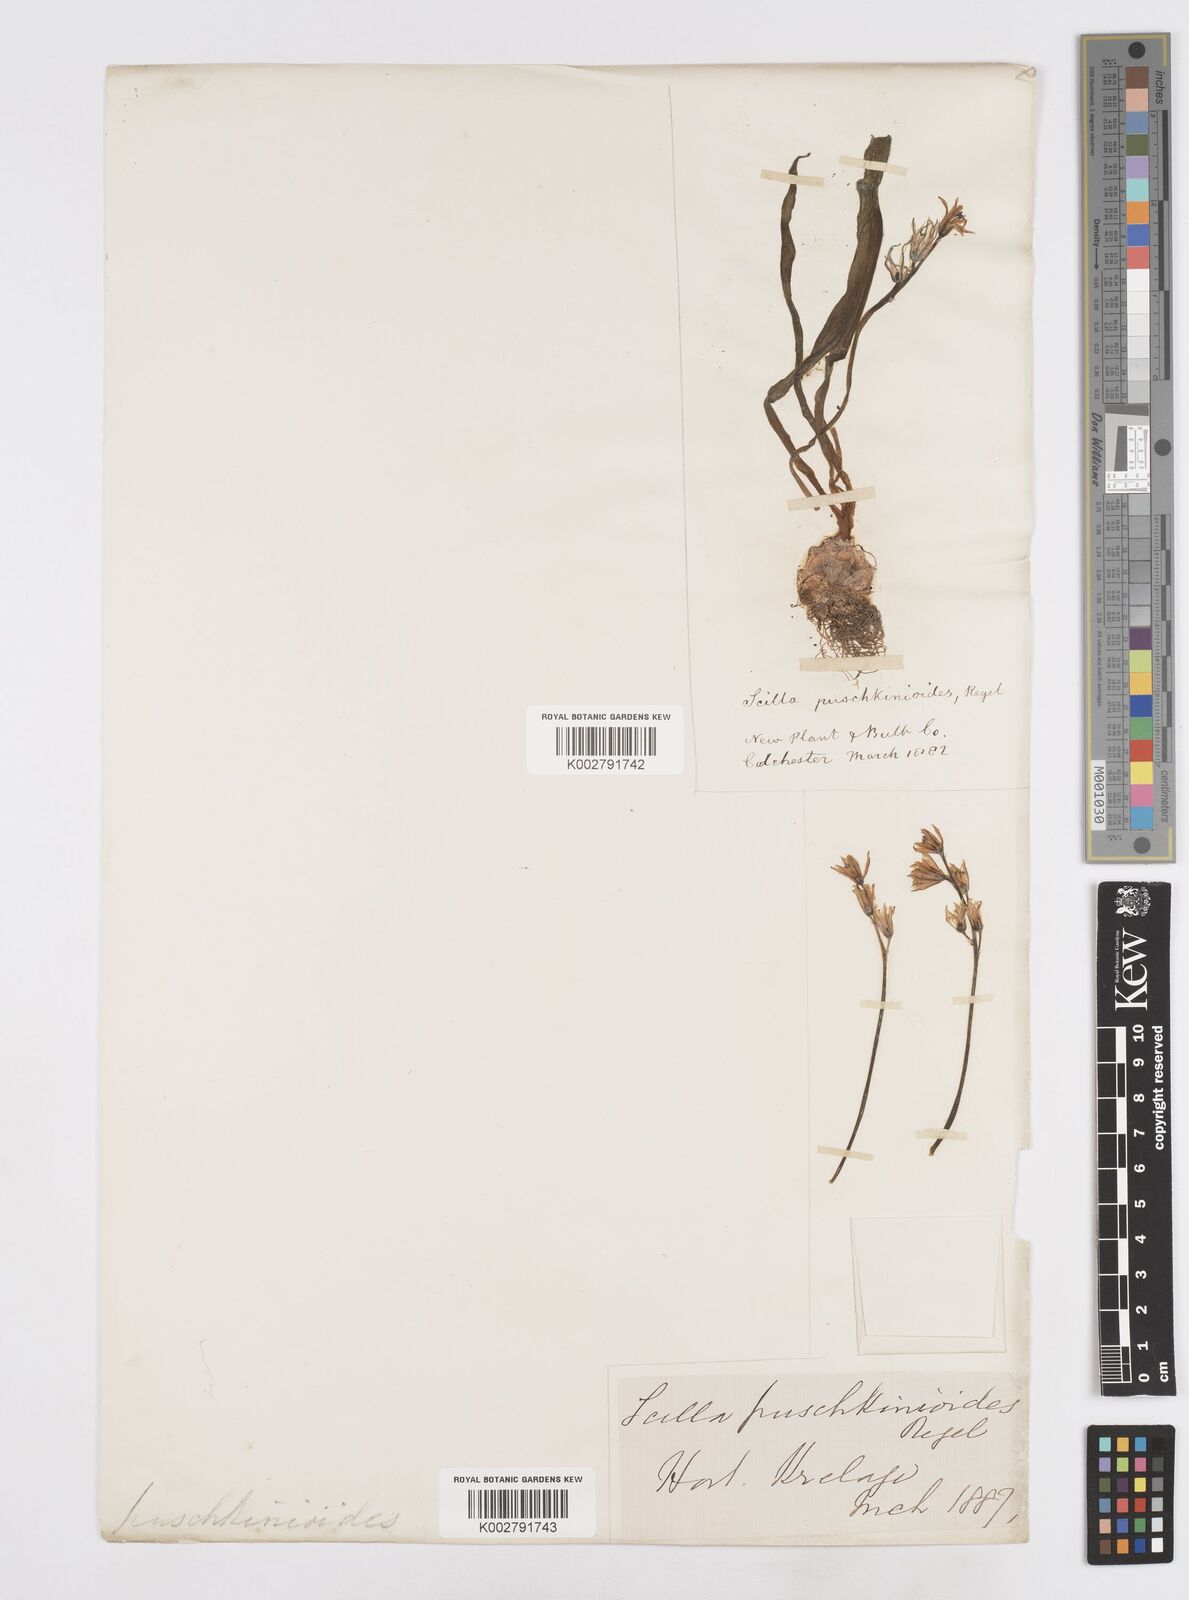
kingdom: Plantae
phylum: Tracheophyta
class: Liliopsida
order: Asparagales
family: Asparagaceae
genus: Fessia
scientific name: Fessia puschkinioides
